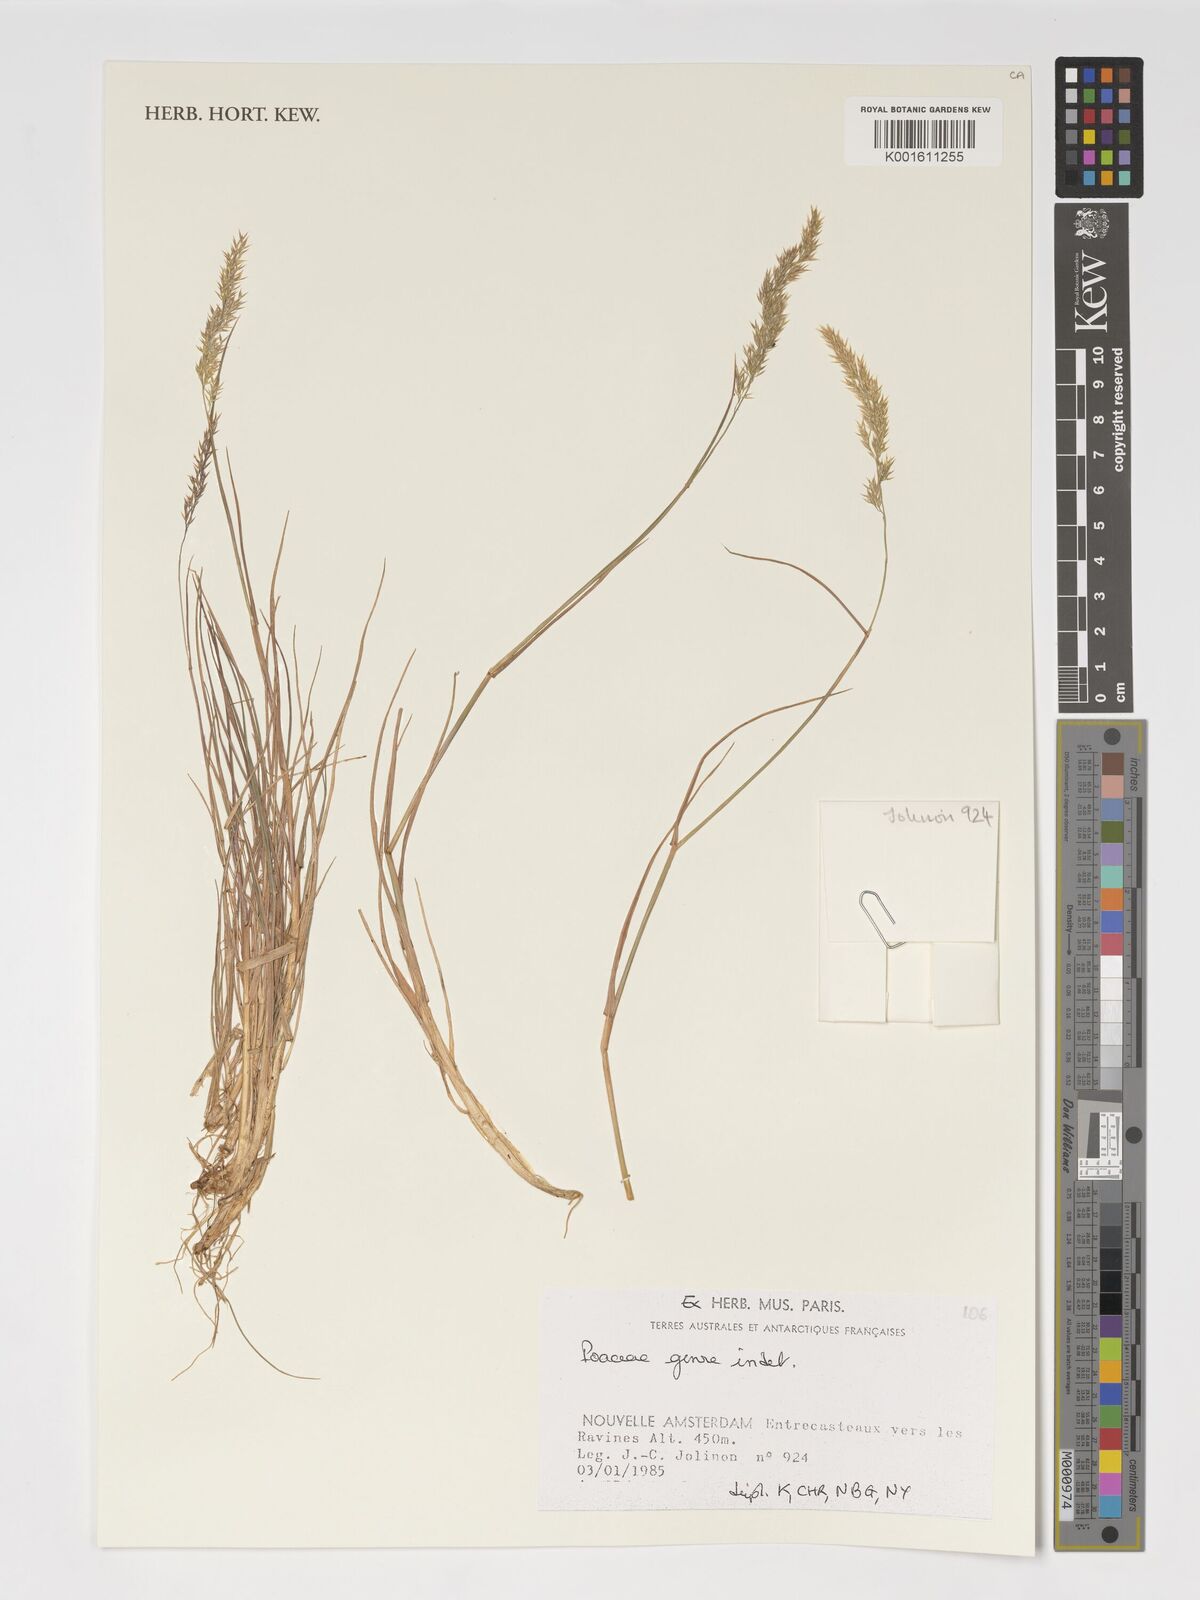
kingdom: Plantae
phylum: Tracheophyta
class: Liliopsida
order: Poales
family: Poaceae
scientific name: Poaceae
